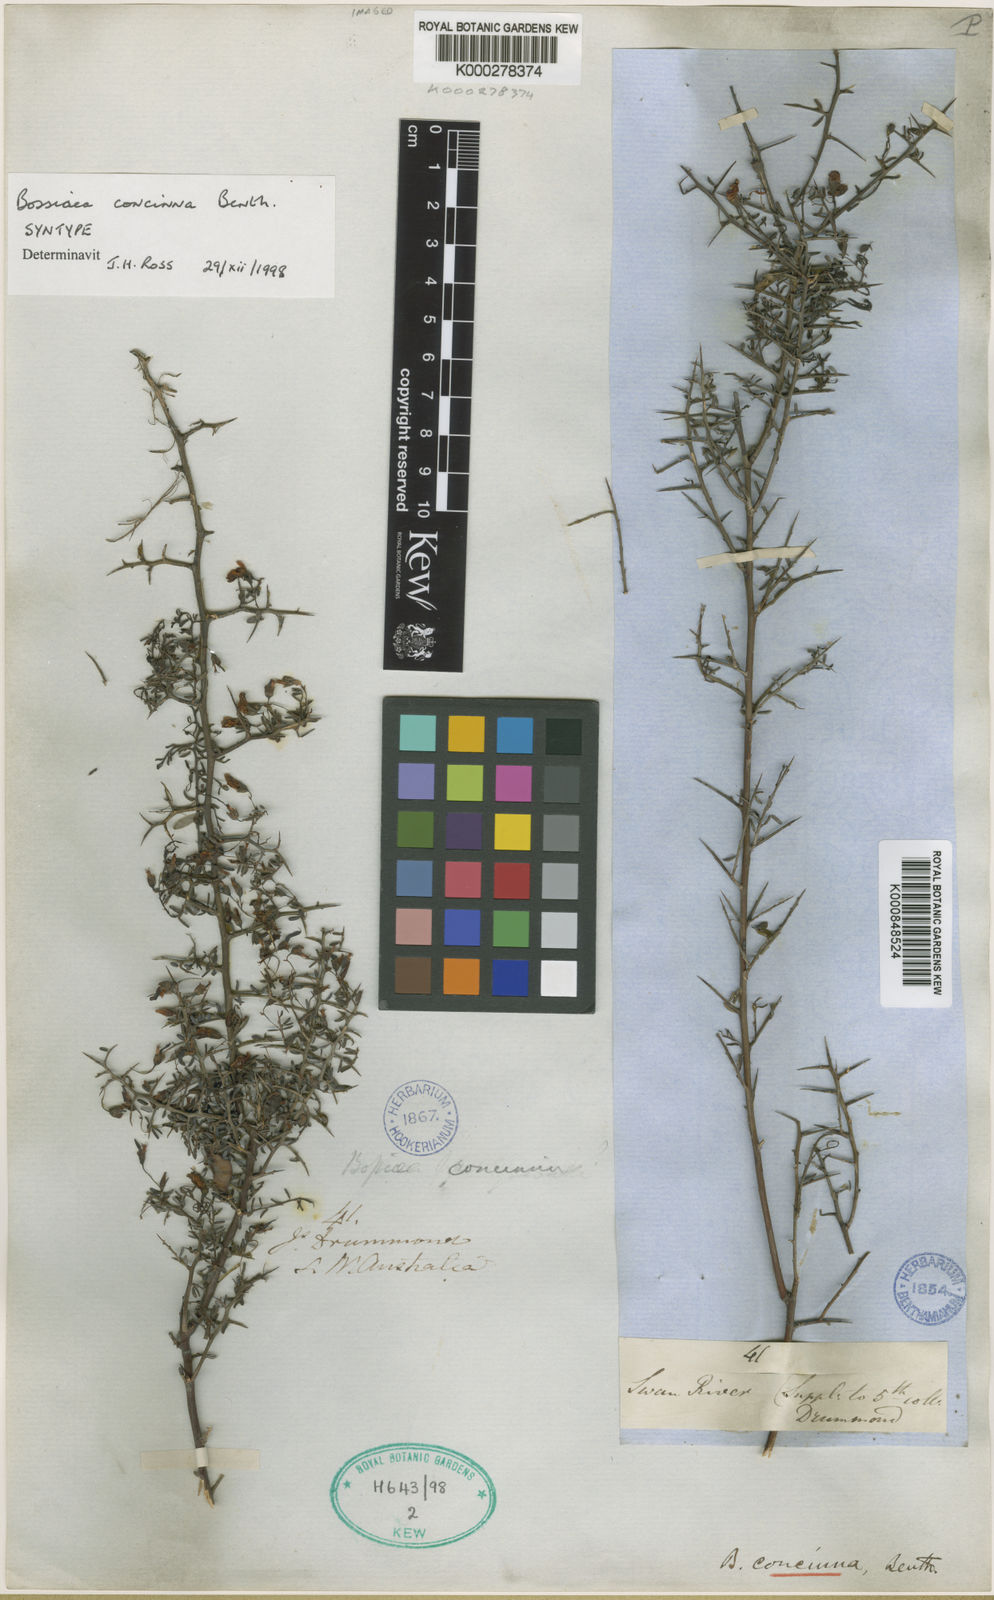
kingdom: Plantae
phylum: Tracheophyta
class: Magnoliopsida
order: Fabales
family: Fabaceae
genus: Bossiaea
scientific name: Bossiaea concinna
